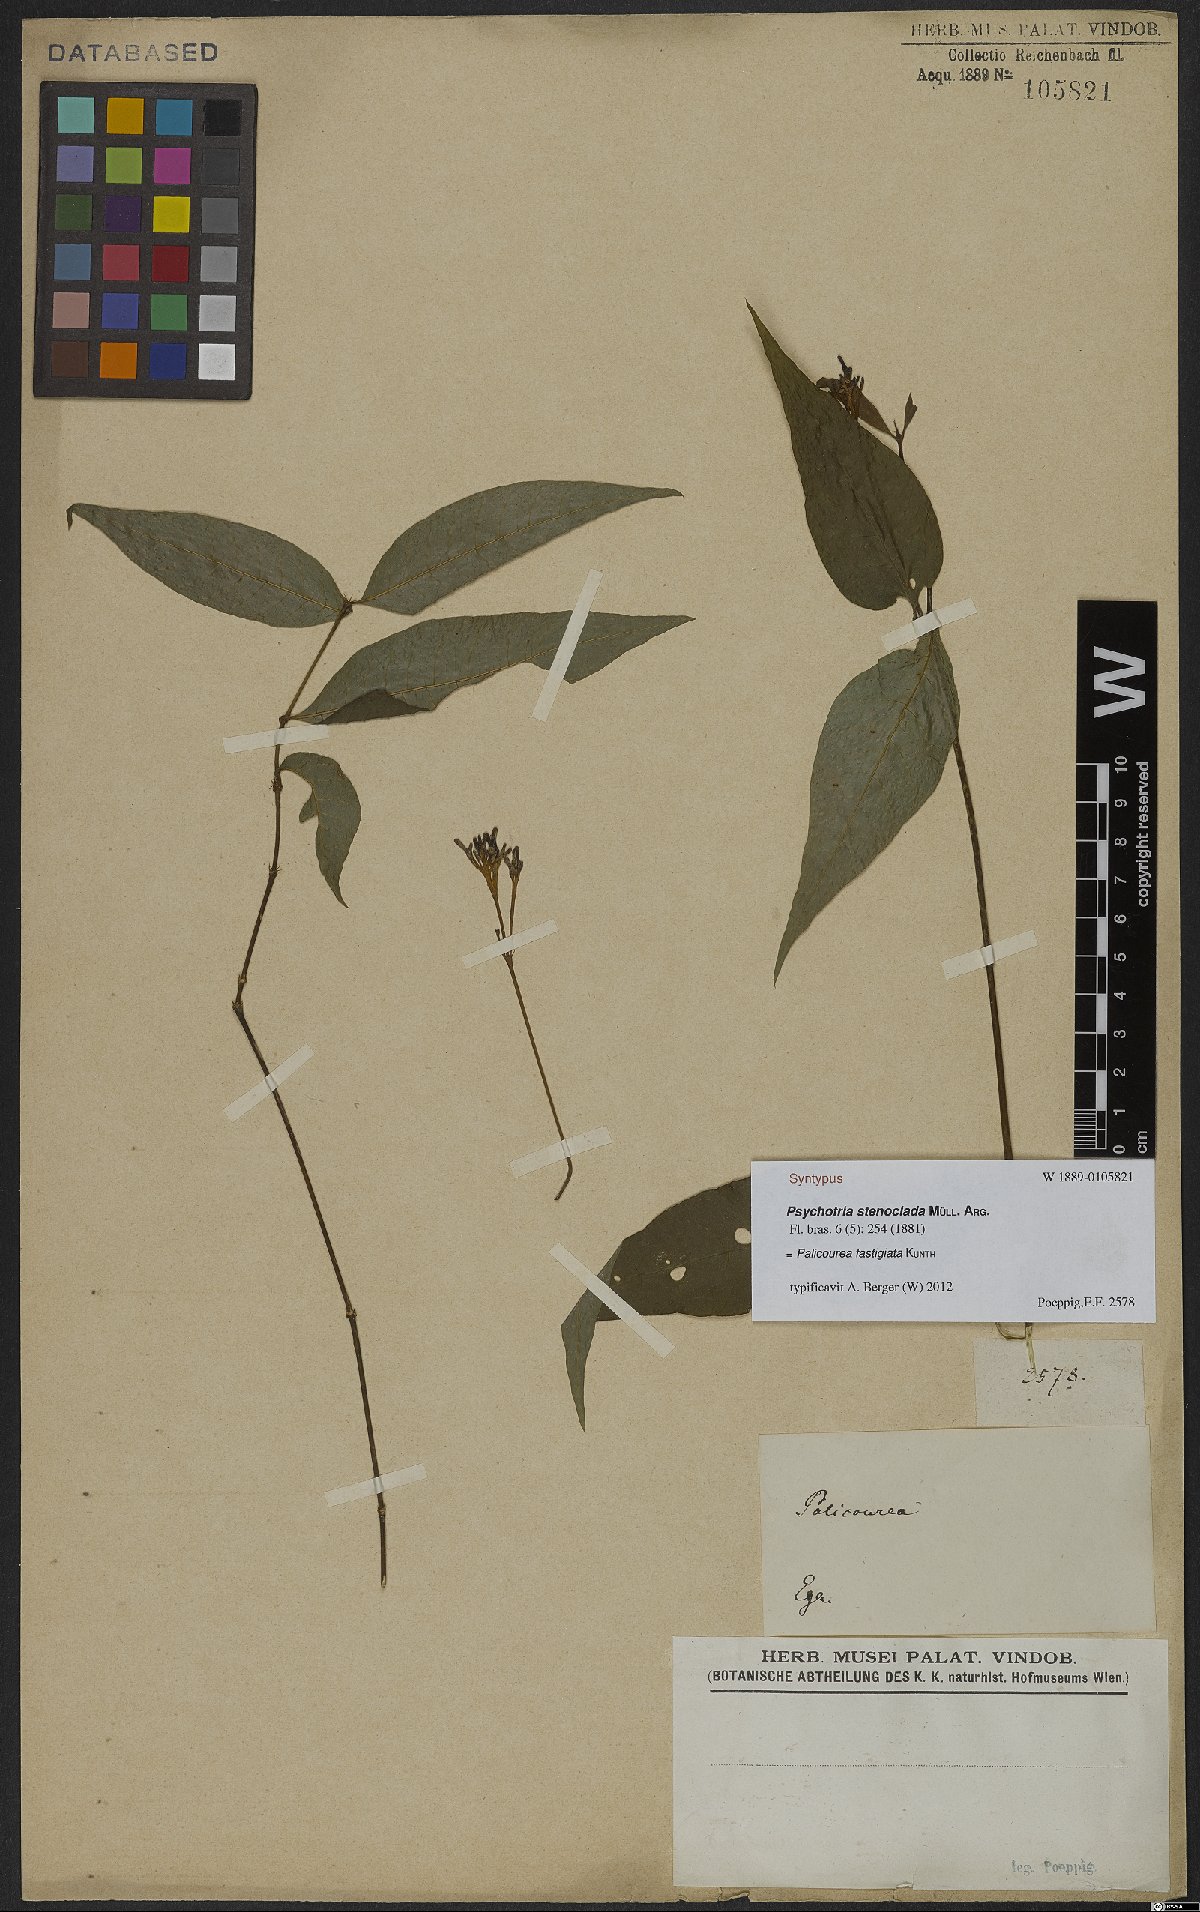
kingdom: Plantae
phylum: Tracheophyta
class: Magnoliopsida
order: Gentianales
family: Rubiaceae
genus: Palicourea
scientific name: Palicourea fastigiata
